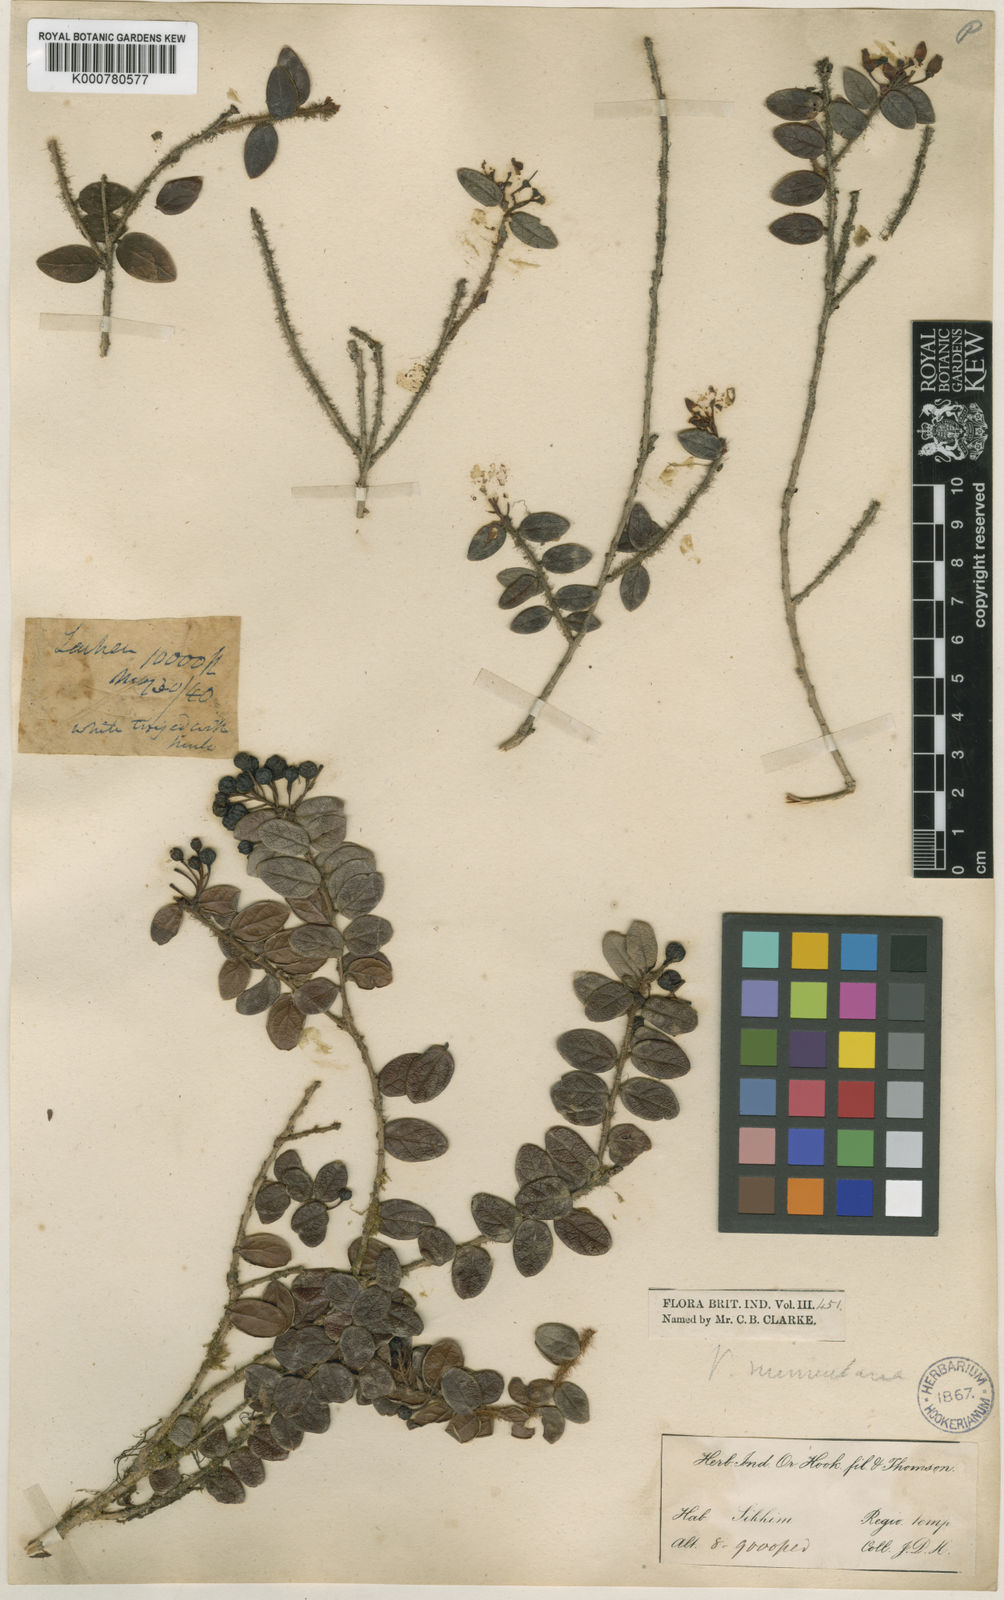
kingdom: Plantae
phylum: Tracheophyta
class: Magnoliopsida
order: Ericales
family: Ericaceae
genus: Vaccinium
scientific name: Vaccinium nummularia
